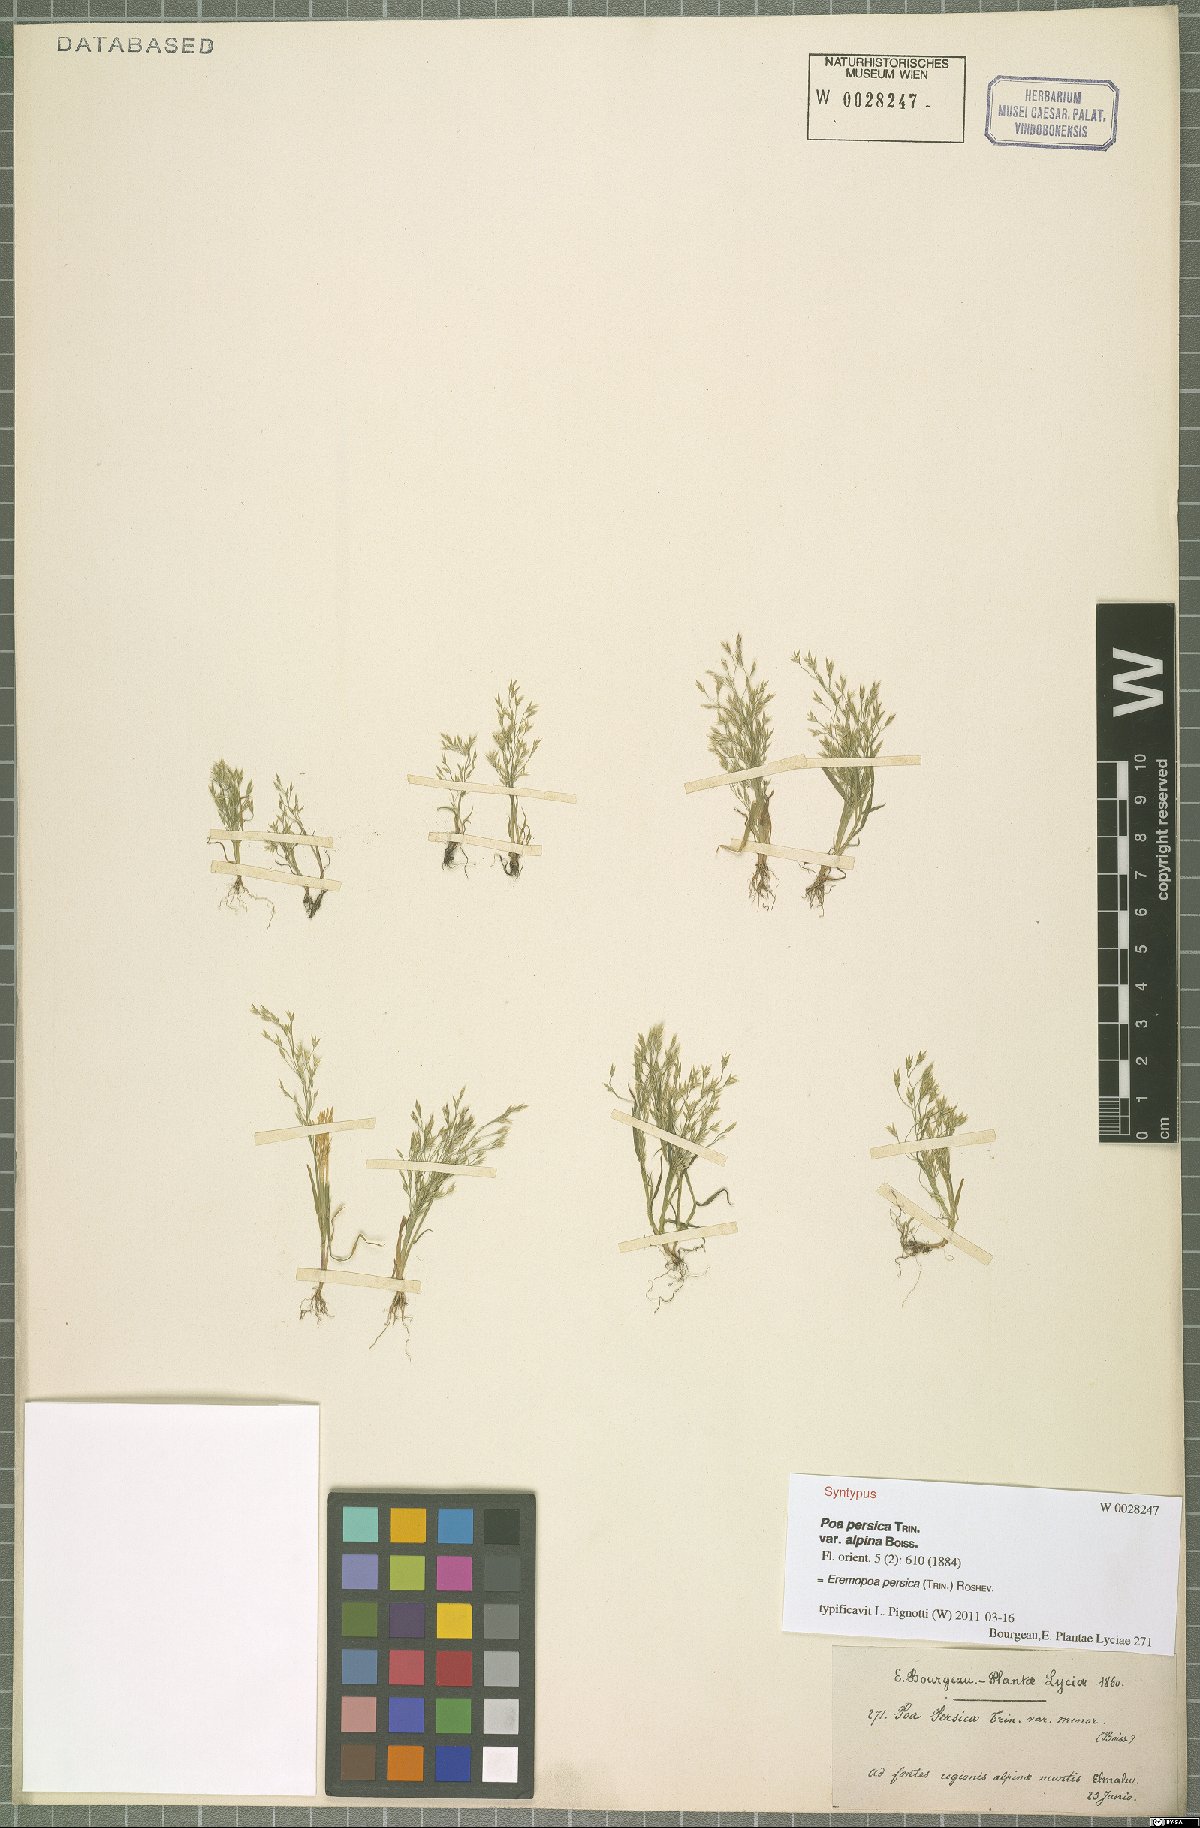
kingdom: Plantae
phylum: Tracheophyta
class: Liliopsida
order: Poales
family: Poaceae
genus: Poa
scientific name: Poa persica
